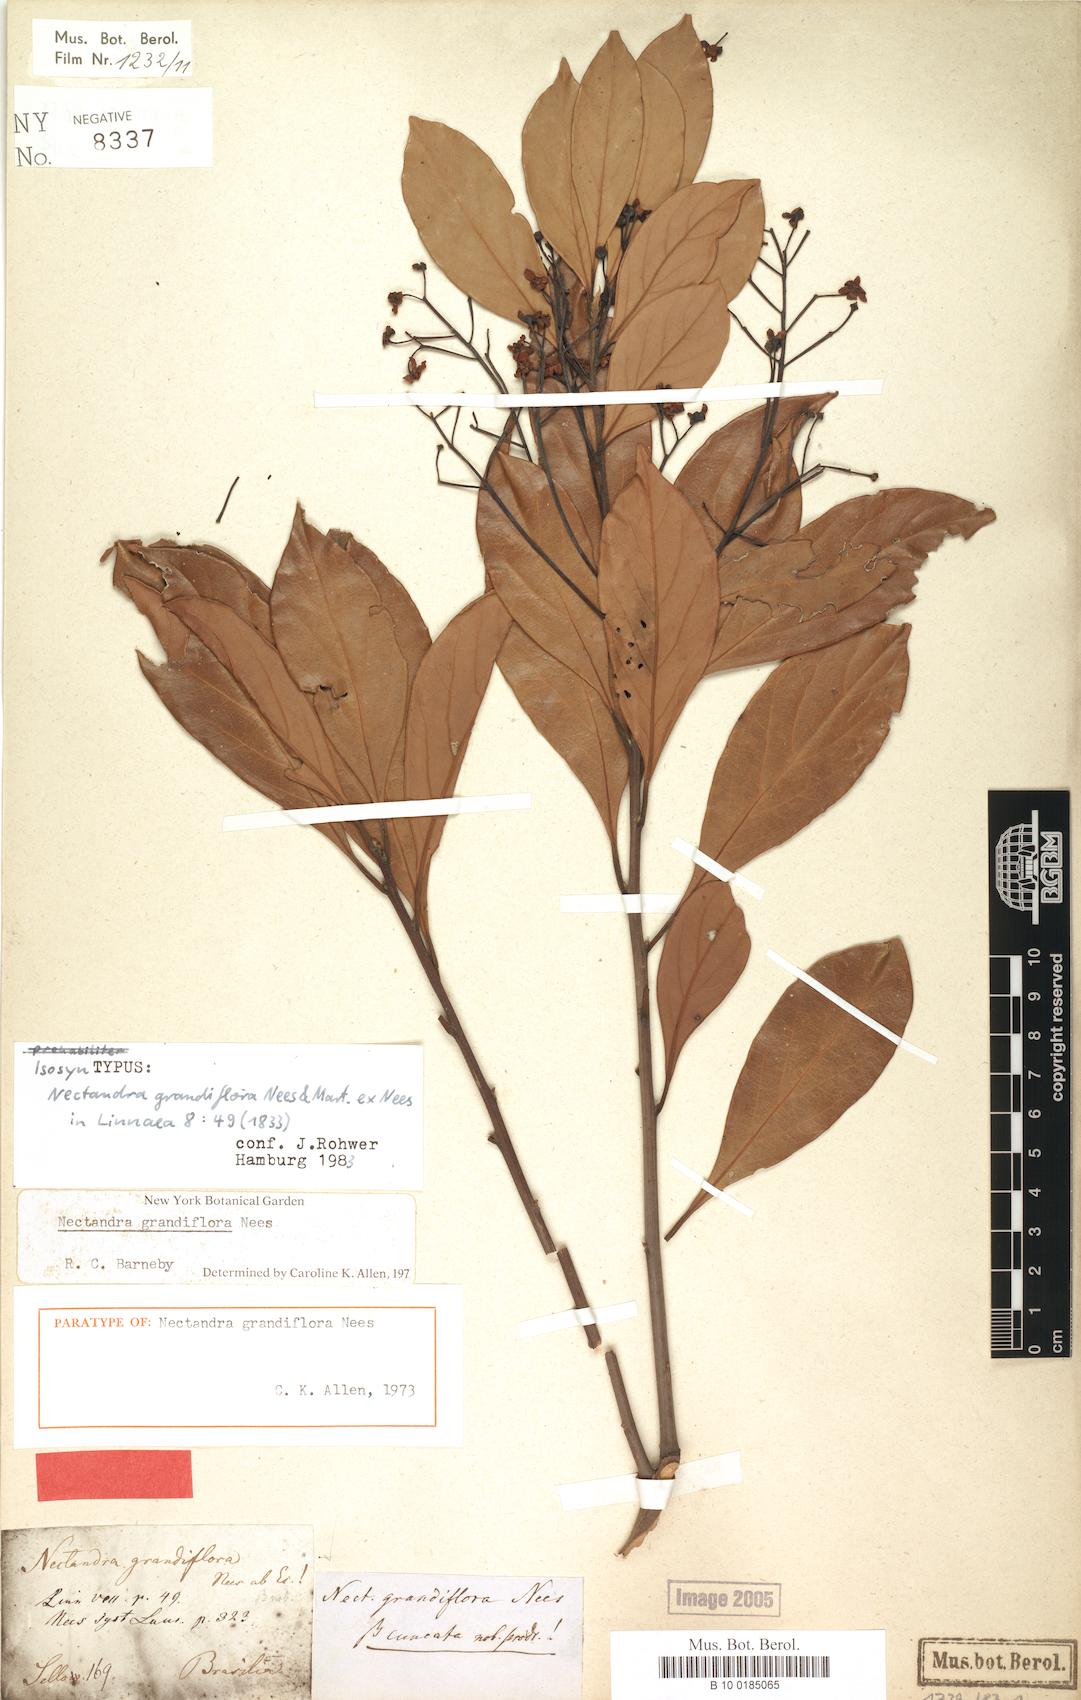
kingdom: Plantae
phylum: Tracheophyta
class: Magnoliopsida
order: Laurales
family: Lauraceae
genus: Nectandra
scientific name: Nectandra grandiflora
